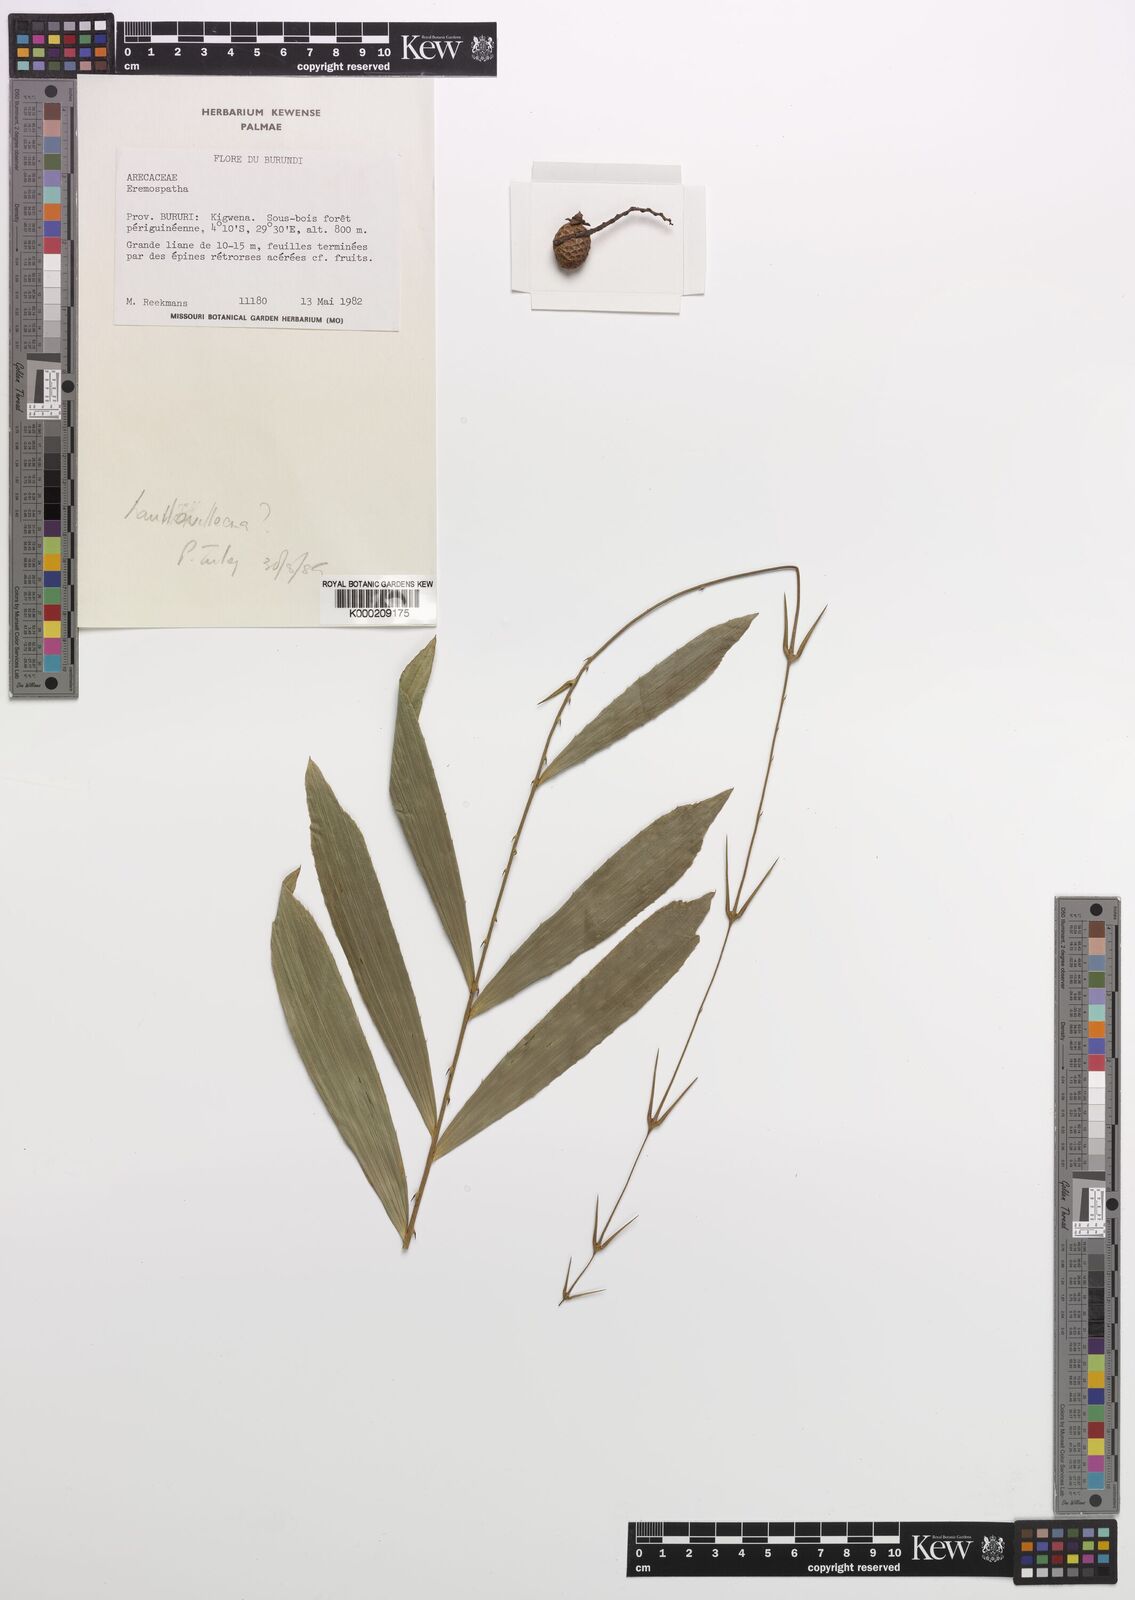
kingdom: Plantae
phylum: Tracheophyta
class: Liliopsida
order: Arecales
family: Arecaceae
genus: Eremospatha
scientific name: Eremospatha haullevilleana
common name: Rattan
